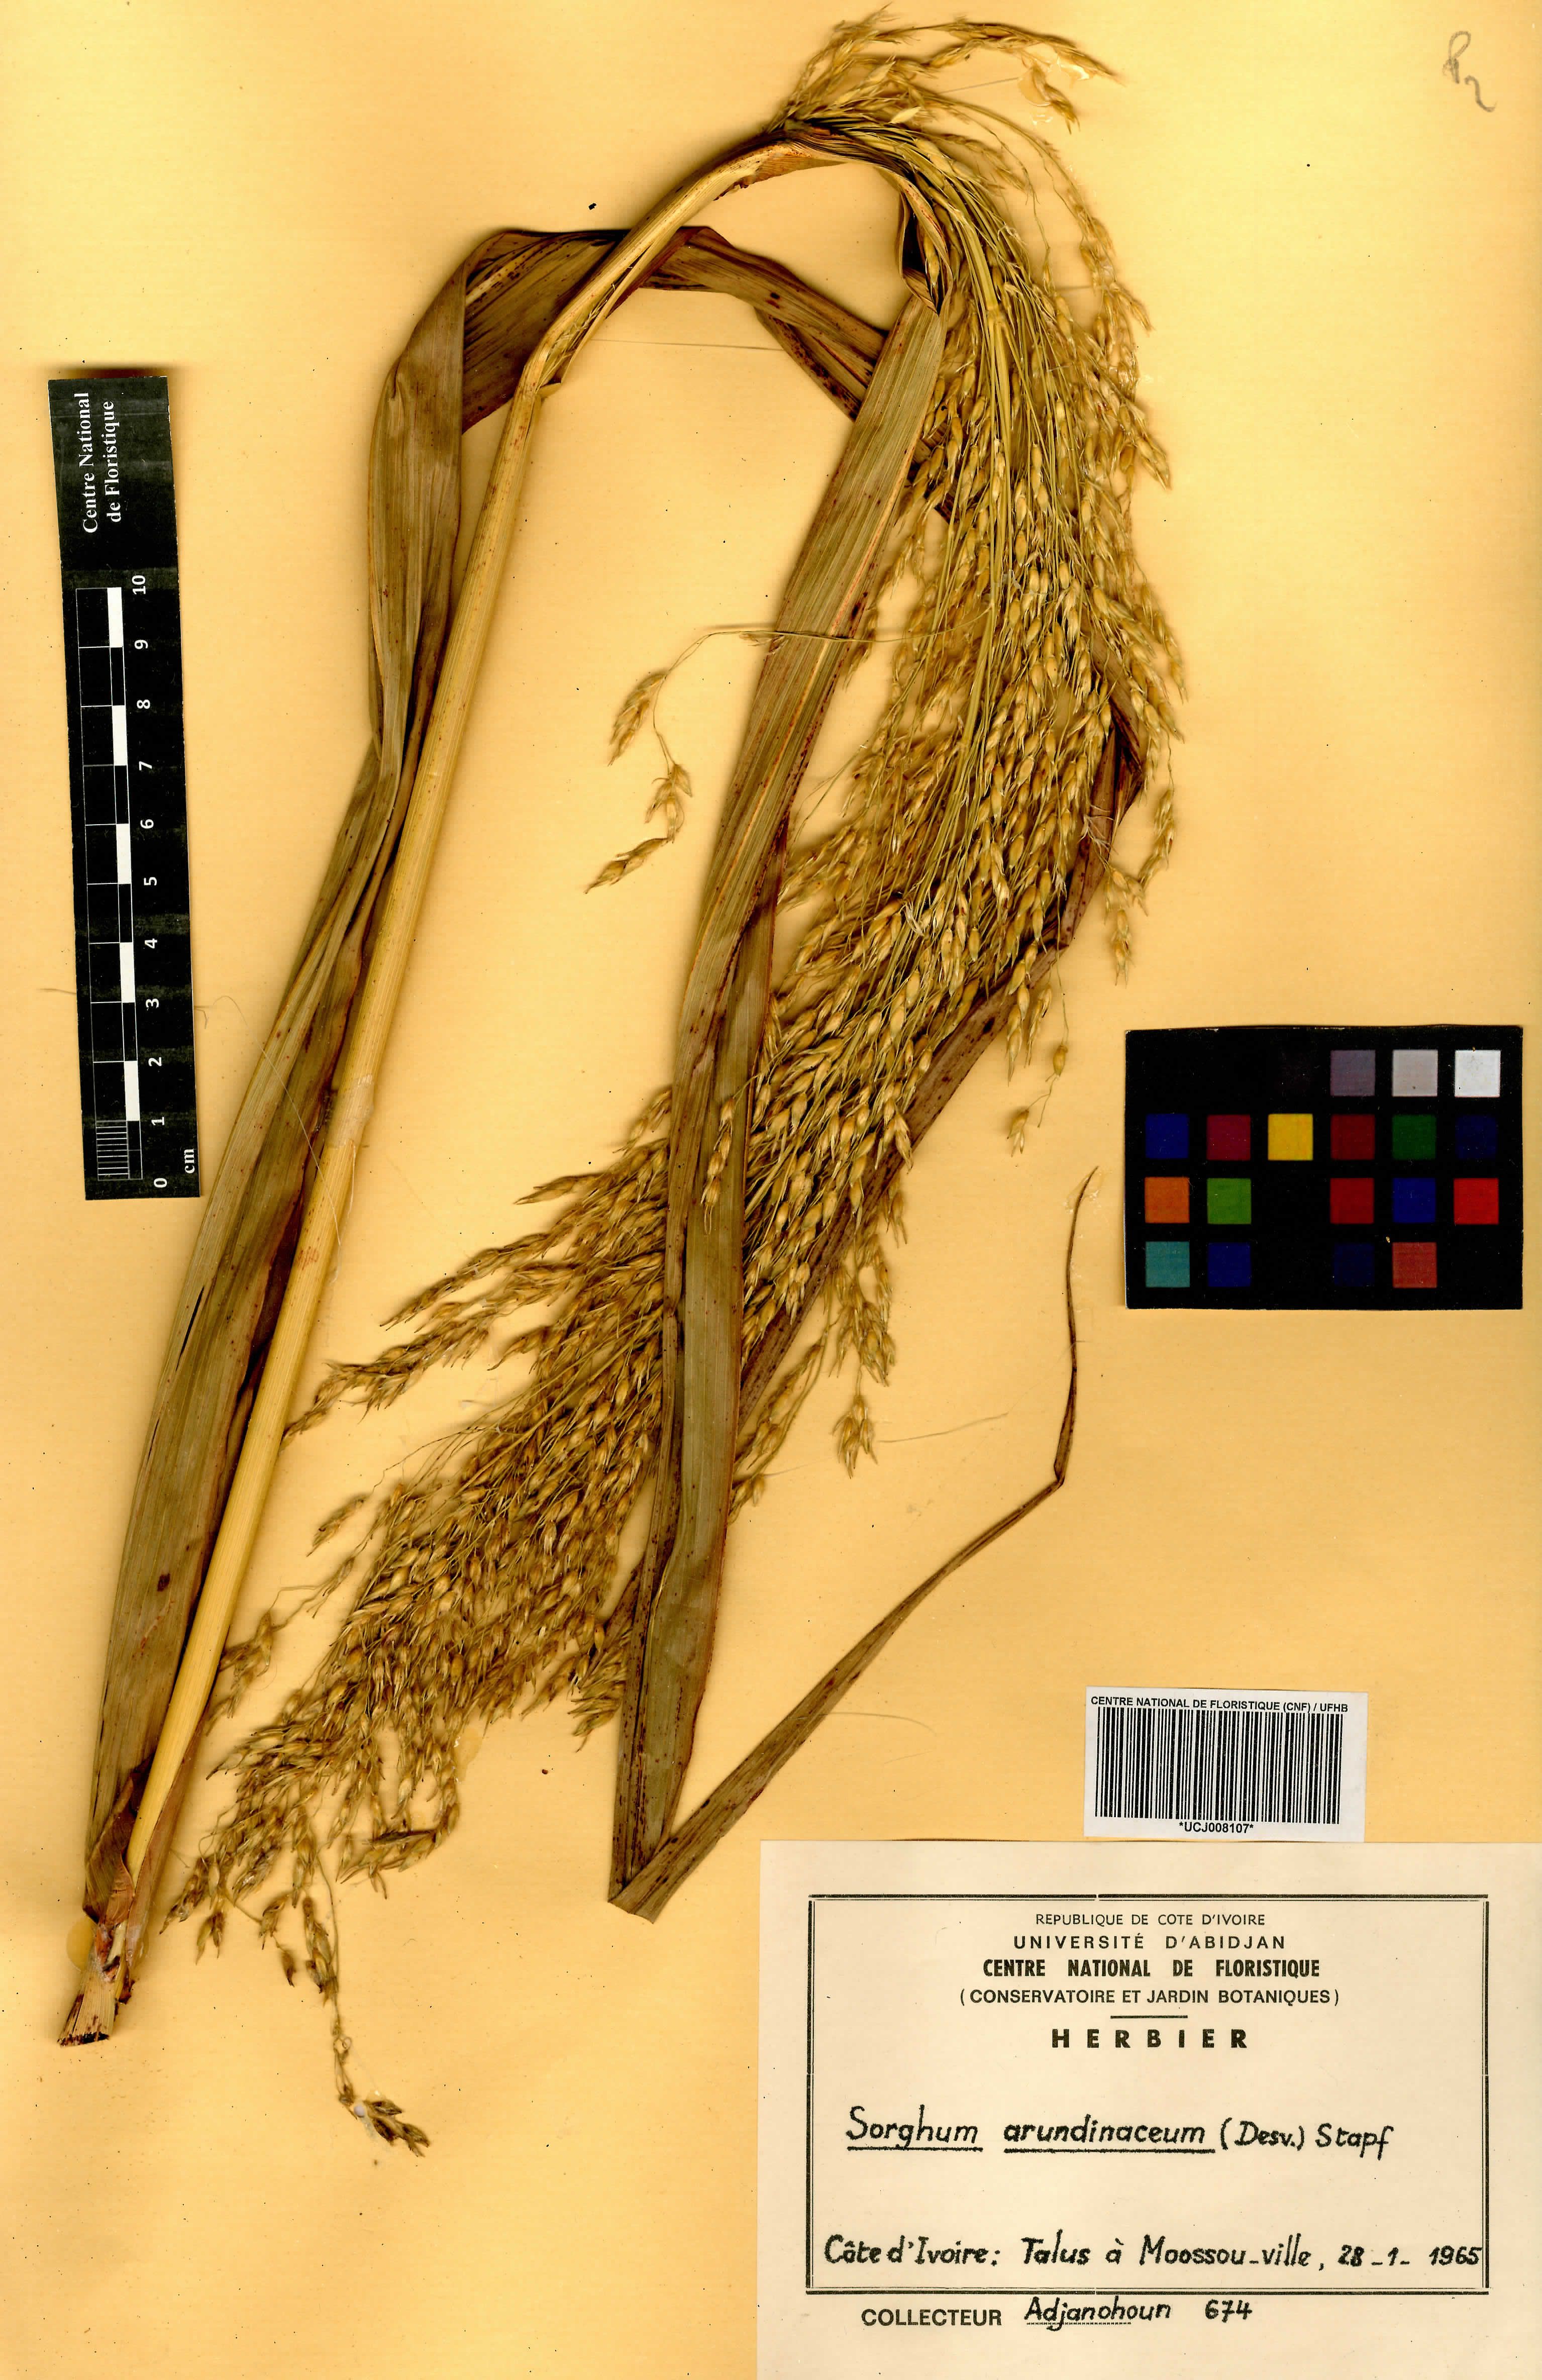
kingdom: Plantae
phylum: Tracheophyta
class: Liliopsida
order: Poales
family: Poaceae
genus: Sorghum
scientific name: Sorghum arundinaceum
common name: Sorghum
